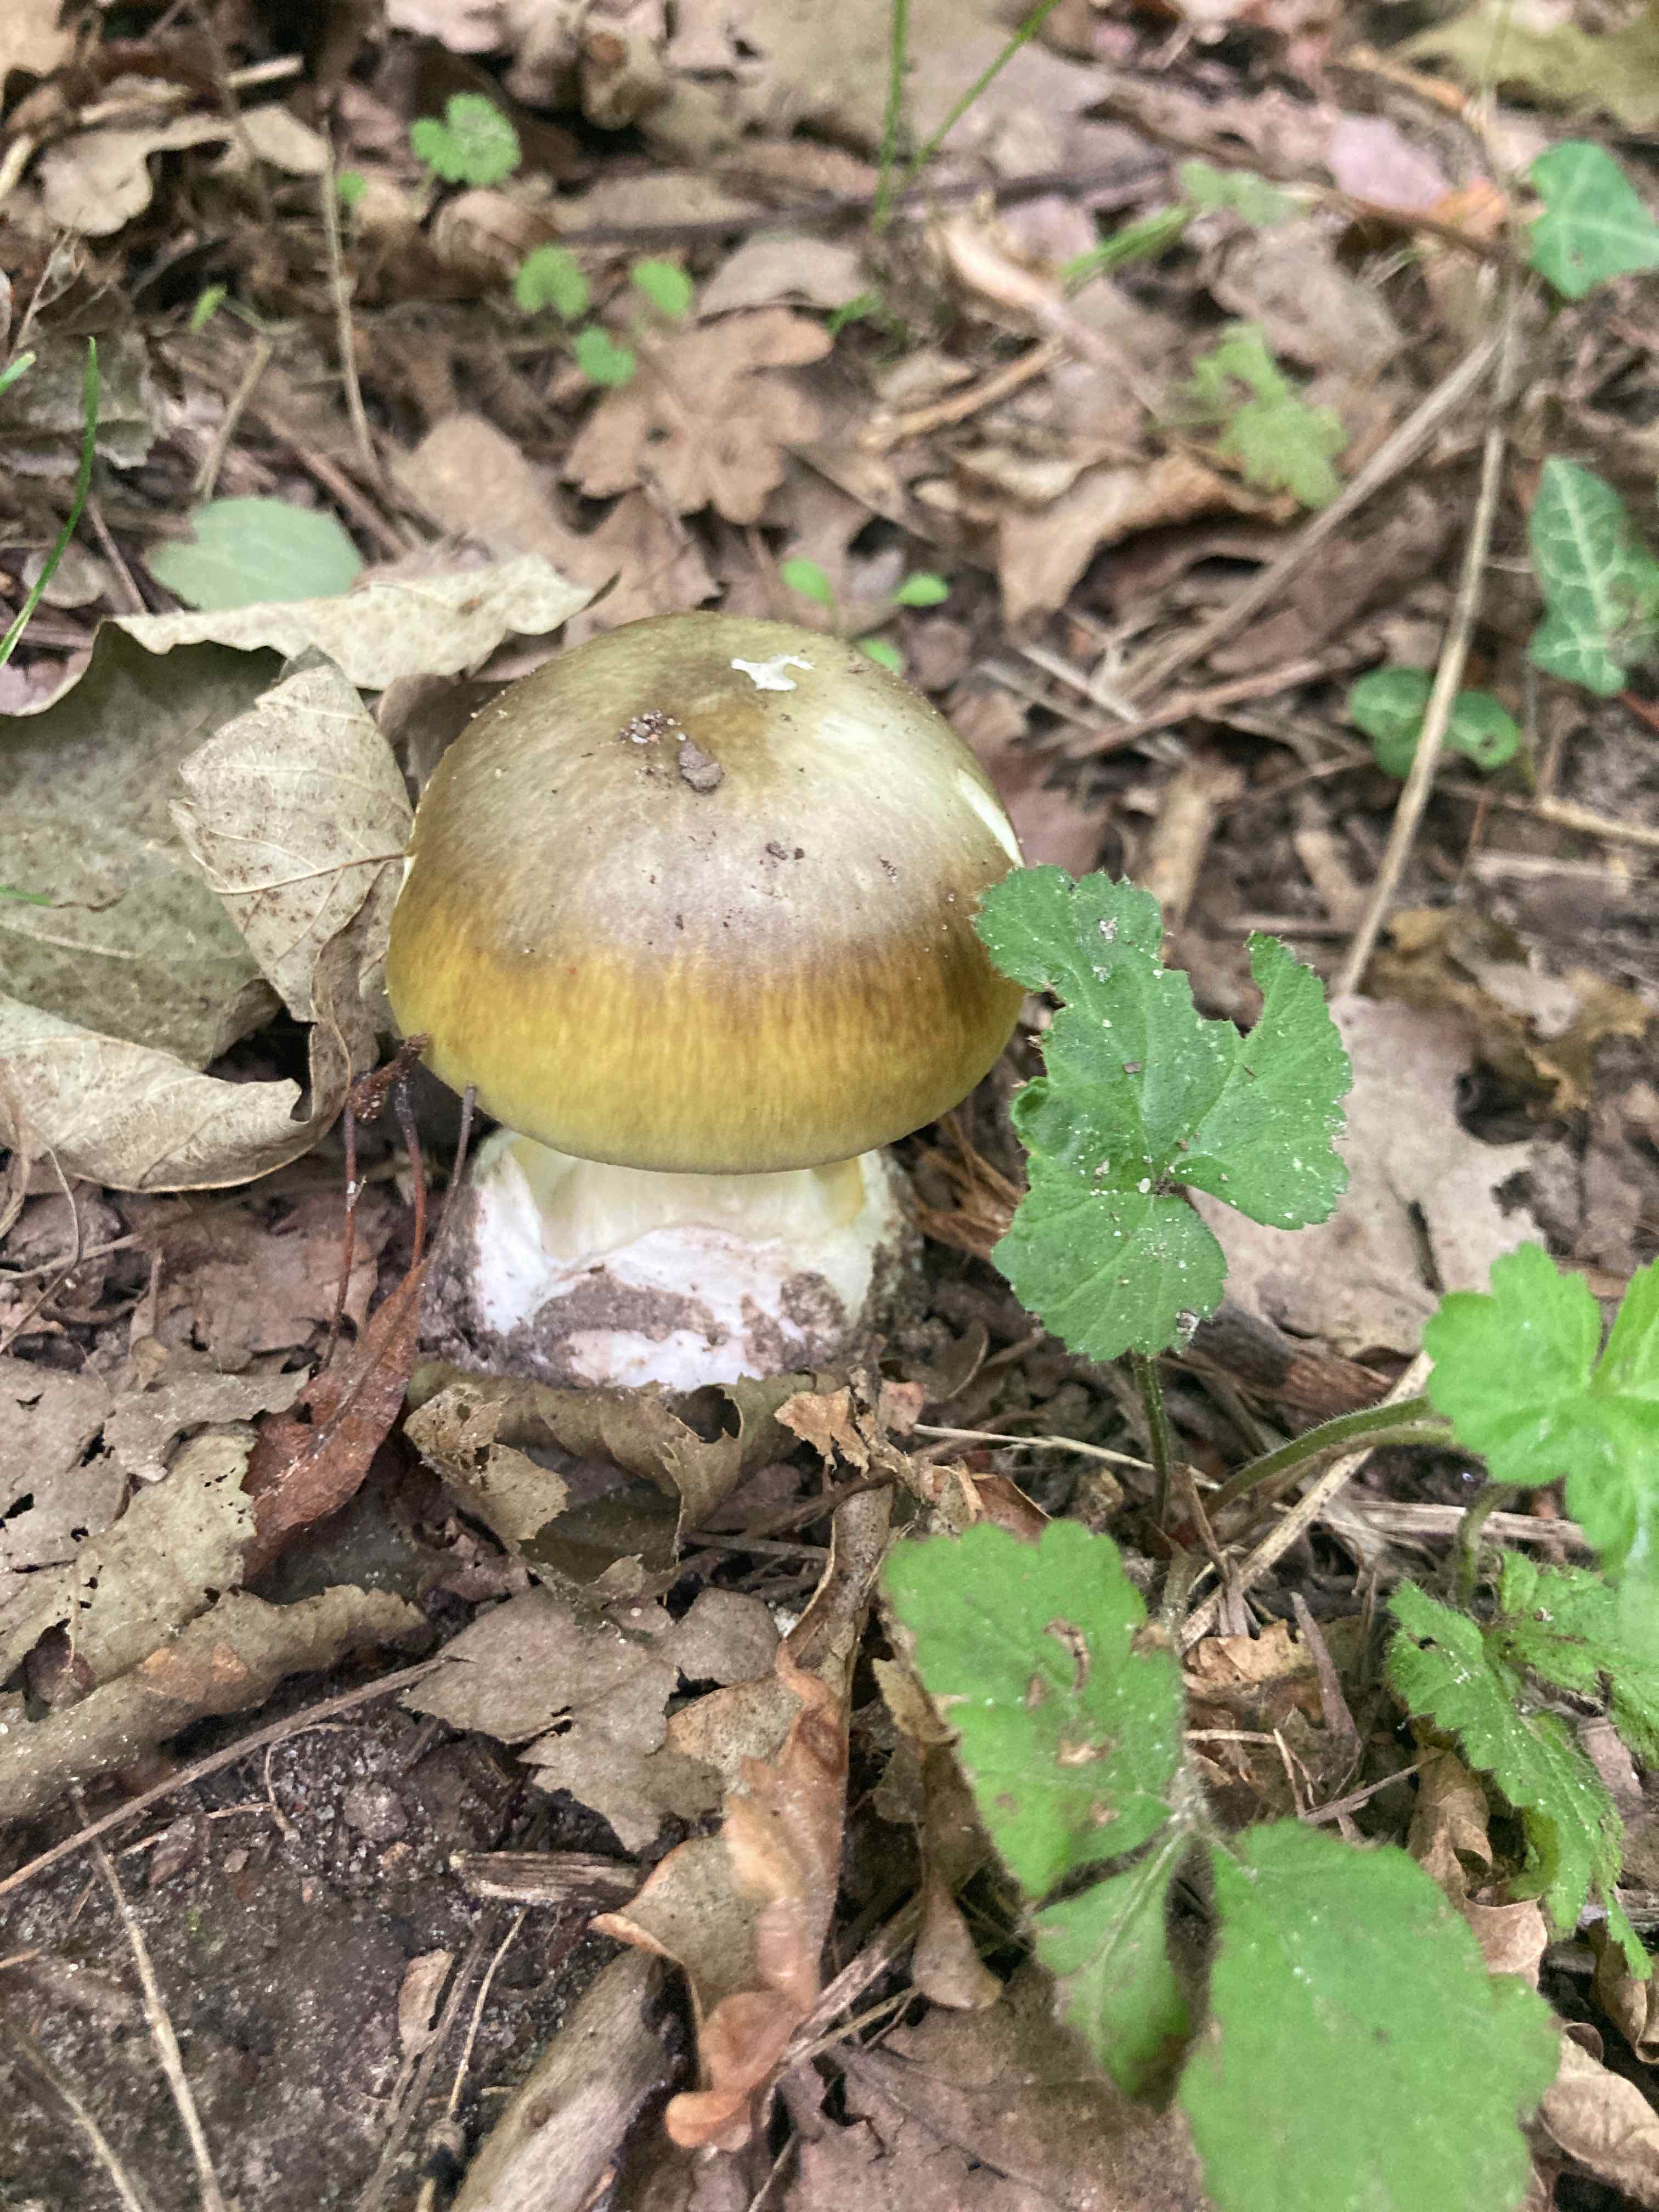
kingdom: Fungi
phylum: Basidiomycota
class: Agaricomycetes
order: Agaricales
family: Amanitaceae
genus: Amanita
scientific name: Amanita phalloides
